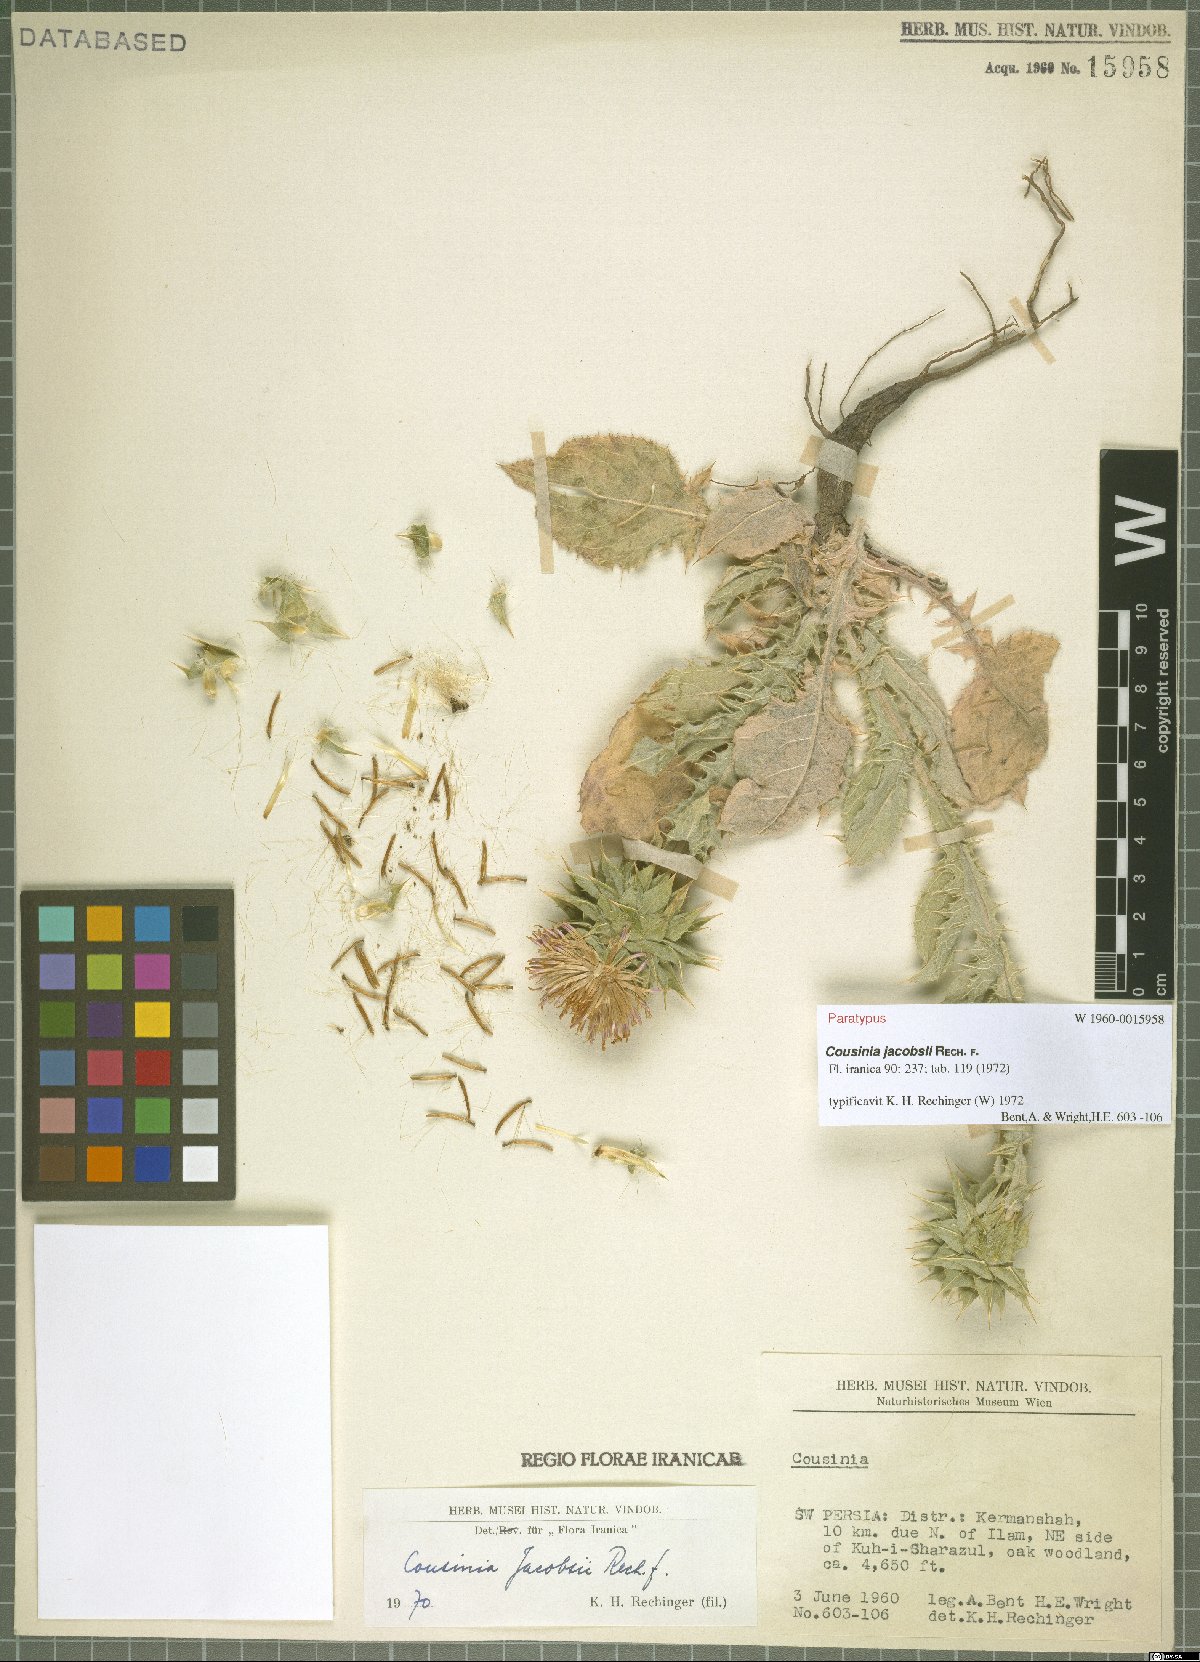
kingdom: Plantae
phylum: Tracheophyta
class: Magnoliopsida
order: Asterales
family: Asteraceae
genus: Cousinia
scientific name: Cousinia jacobsii
